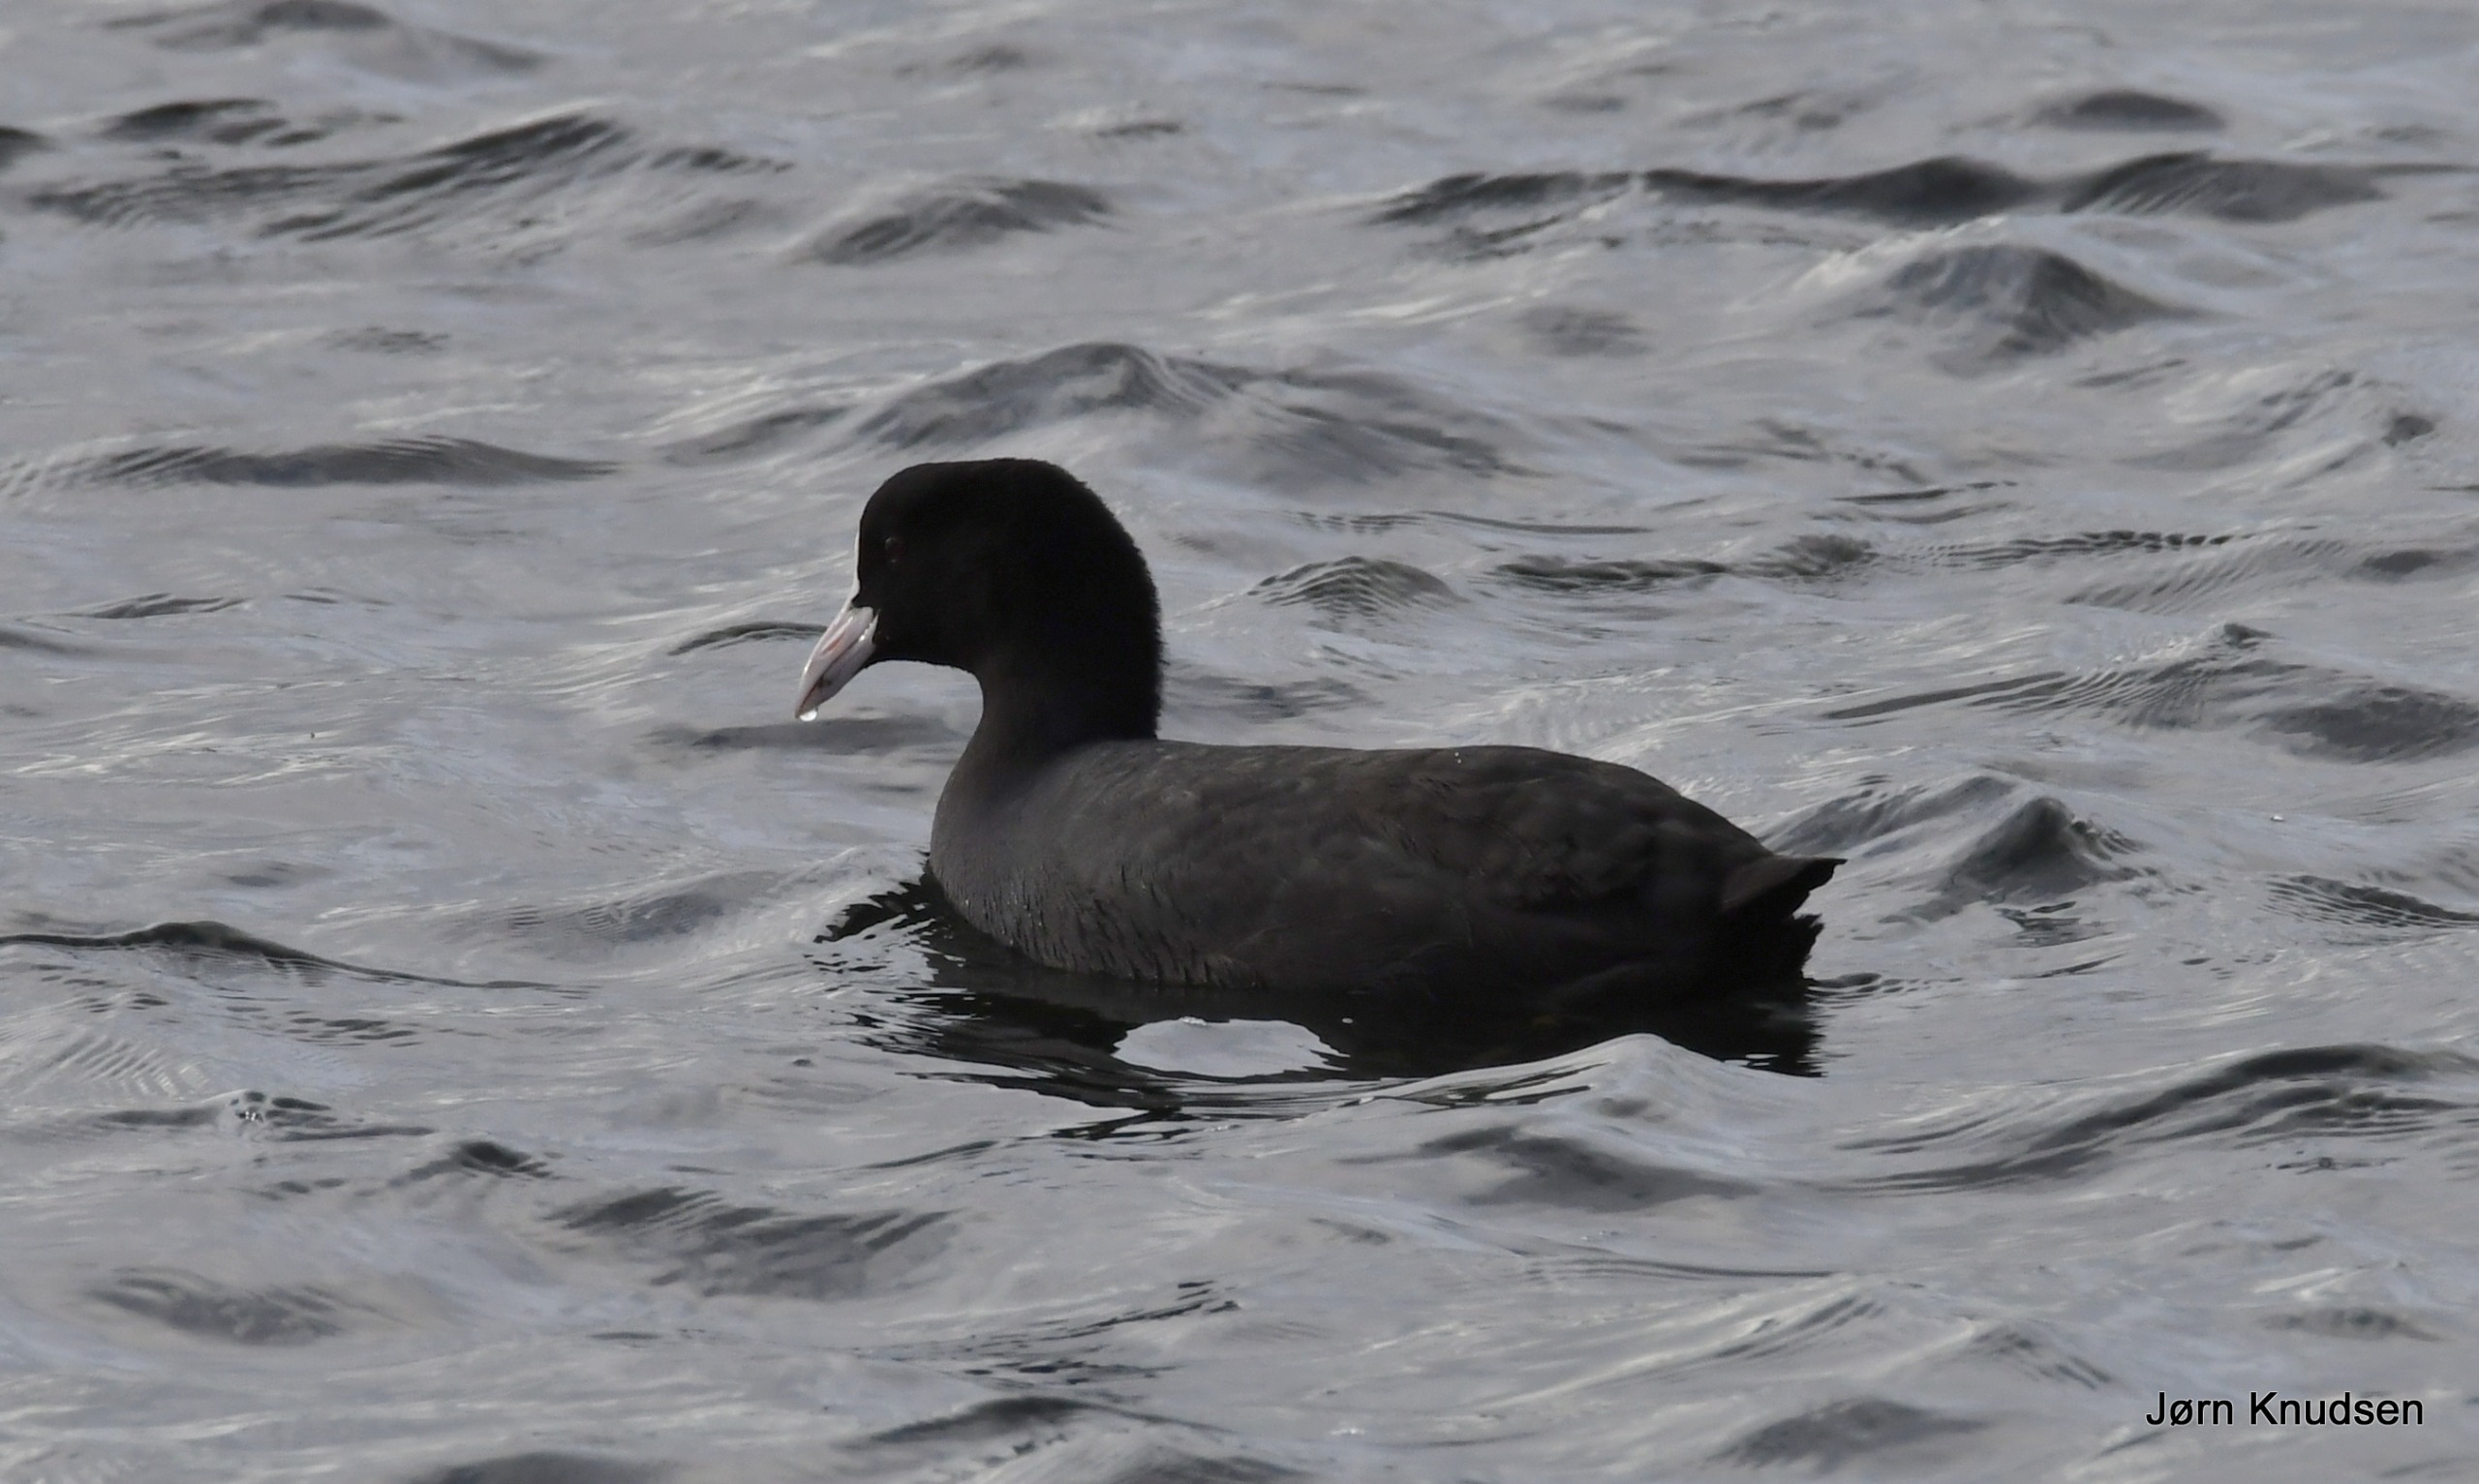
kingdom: Animalia
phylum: Chordata
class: Aves
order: Gruiformes
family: Rallidae
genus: Fulica
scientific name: Fulica atra
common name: Blishøne
